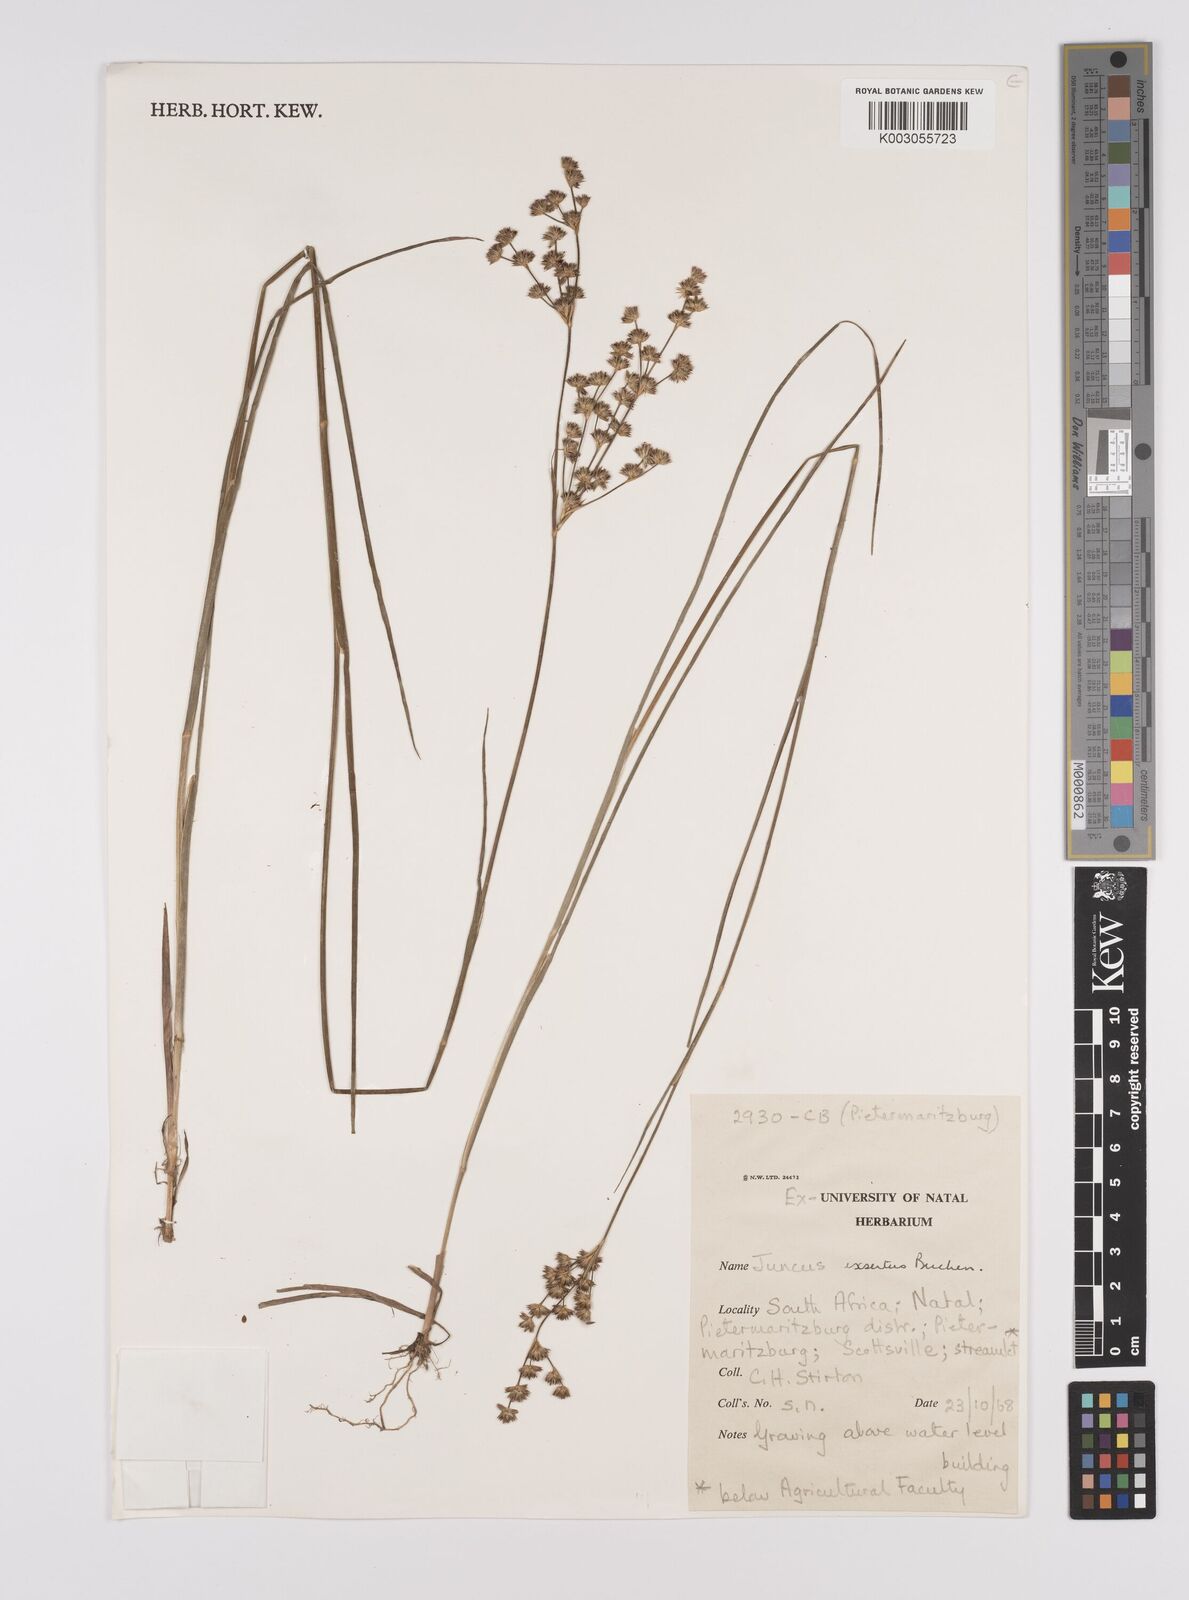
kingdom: Plantae
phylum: Tracheophyta
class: Liliopsida
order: Poales
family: Juncaceae
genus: Juncus
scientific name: Juncus exsertus
